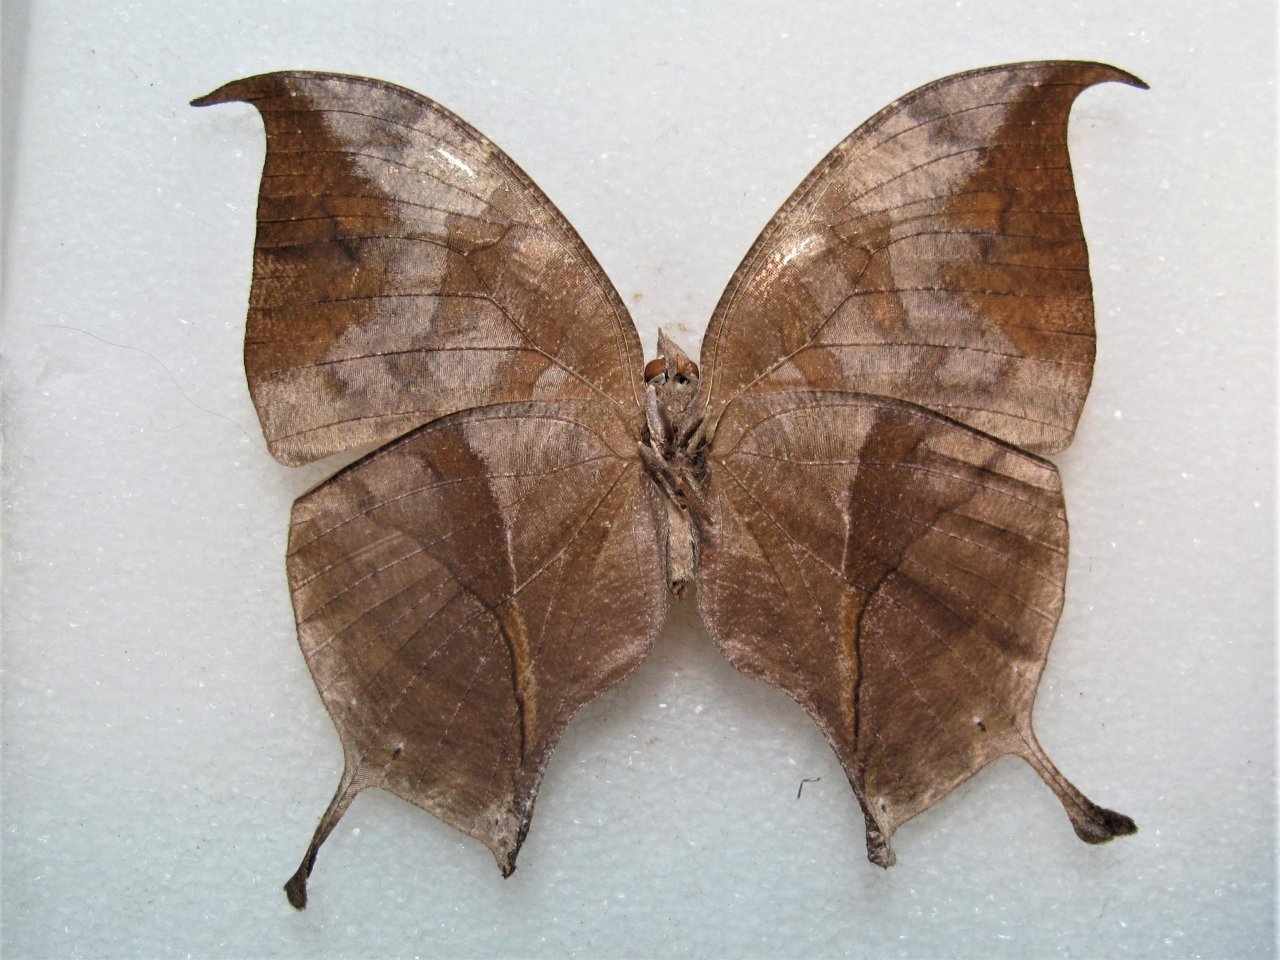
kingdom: Animalia
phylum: Arthropoda
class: Insecta
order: Lepidoptera
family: Nymphalidae
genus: Consul
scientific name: Consul electra
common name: Pearly Leafwing
